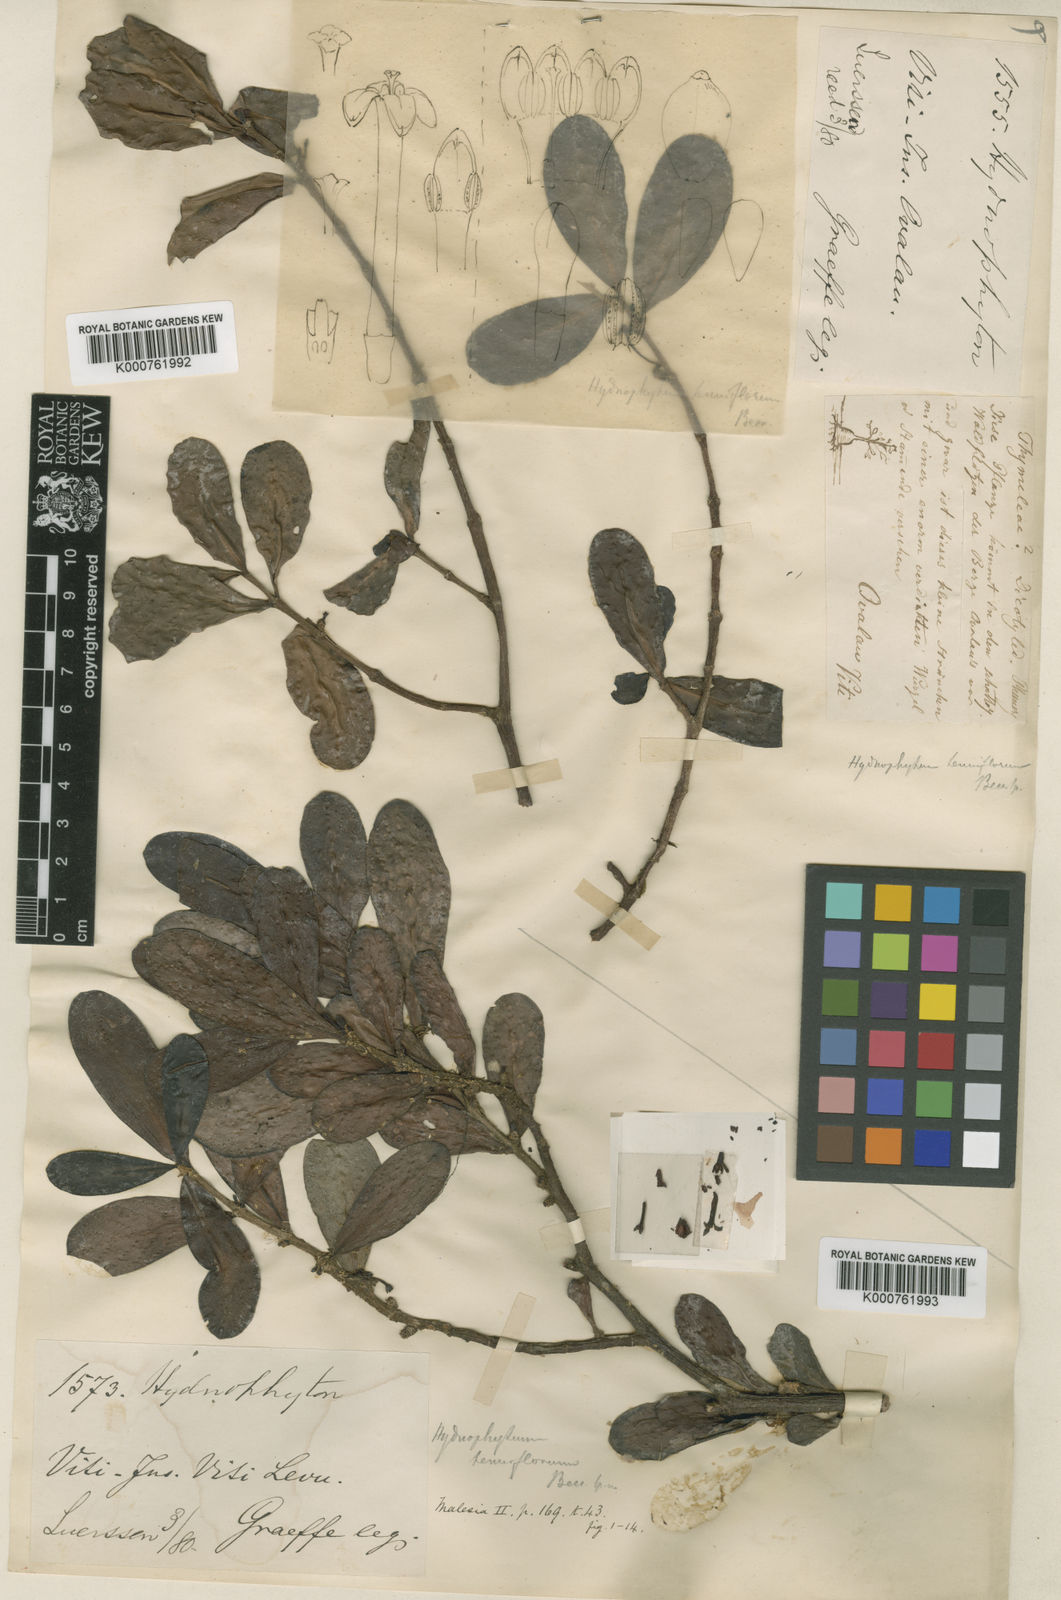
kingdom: Plantae
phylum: Tracheophyta
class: Magnoliopsida
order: Gentianales
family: Rubiaceae
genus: Hydnophytum
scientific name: Hydnophytum longiflorum
